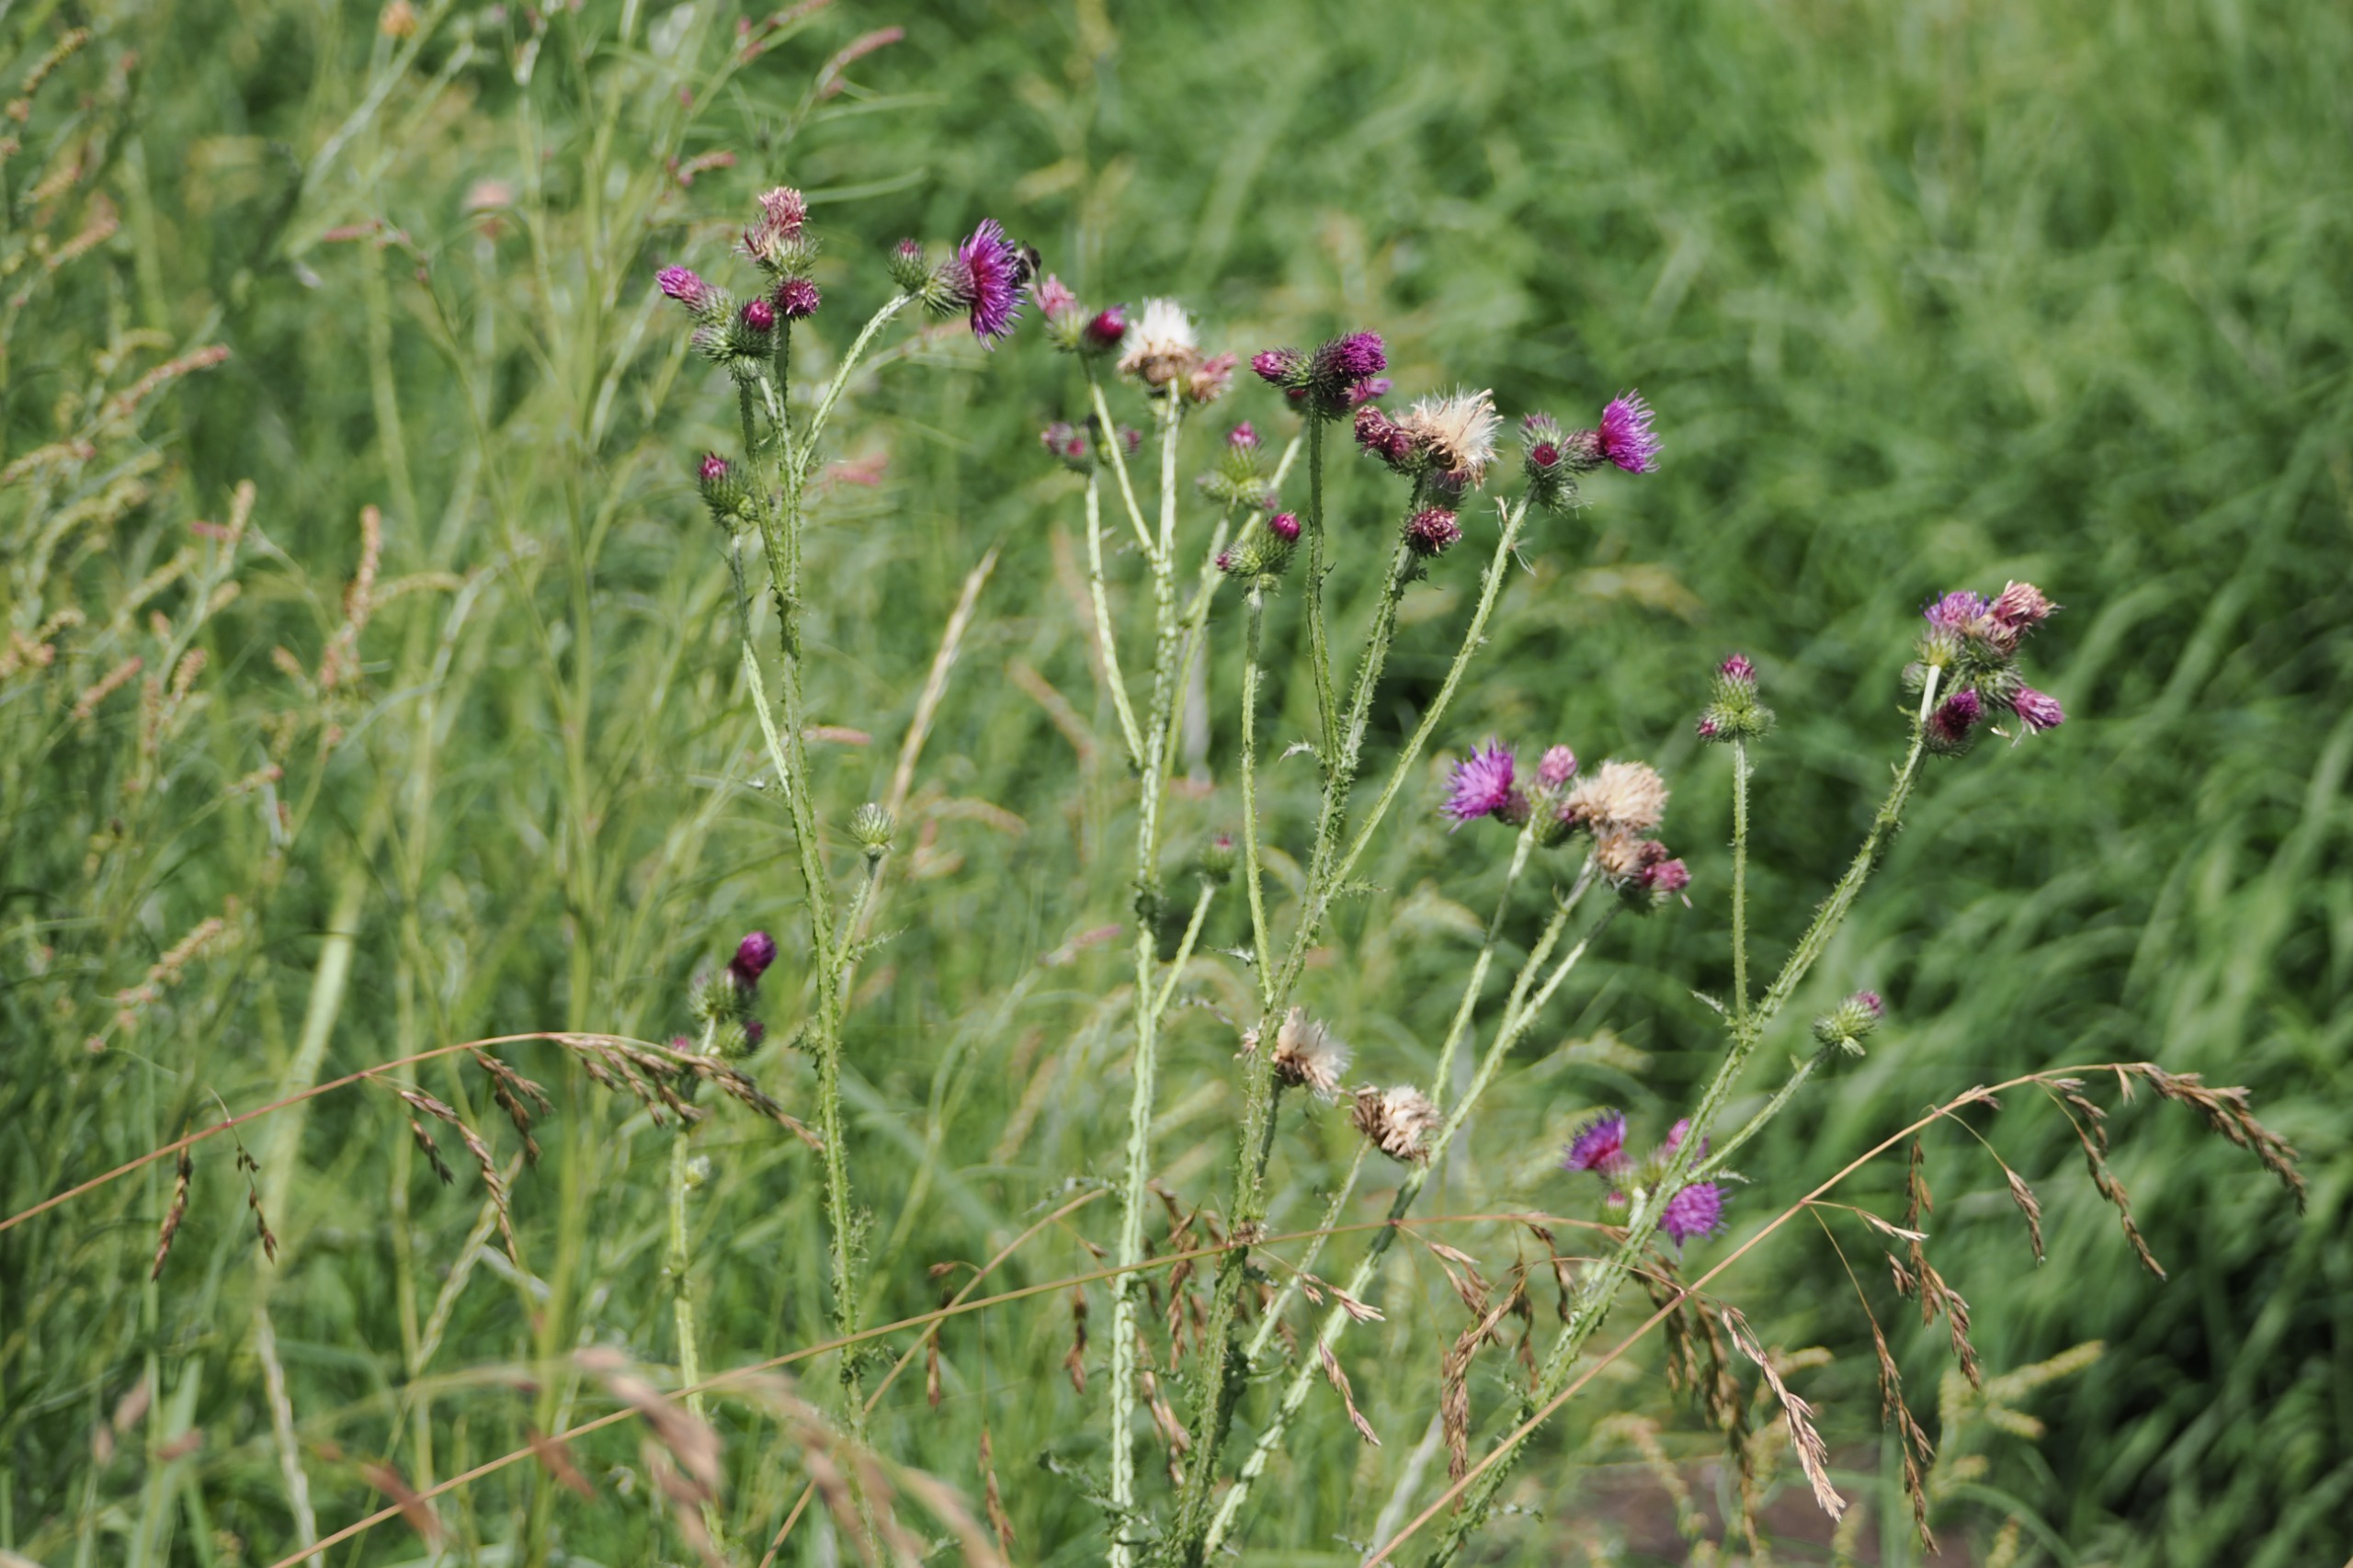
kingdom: Plantae
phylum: Tracheophyta
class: Magnoliopsida
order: Asterales
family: Asteraceae
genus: Carduus
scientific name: Carduus crispus
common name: Kruset tidsel
